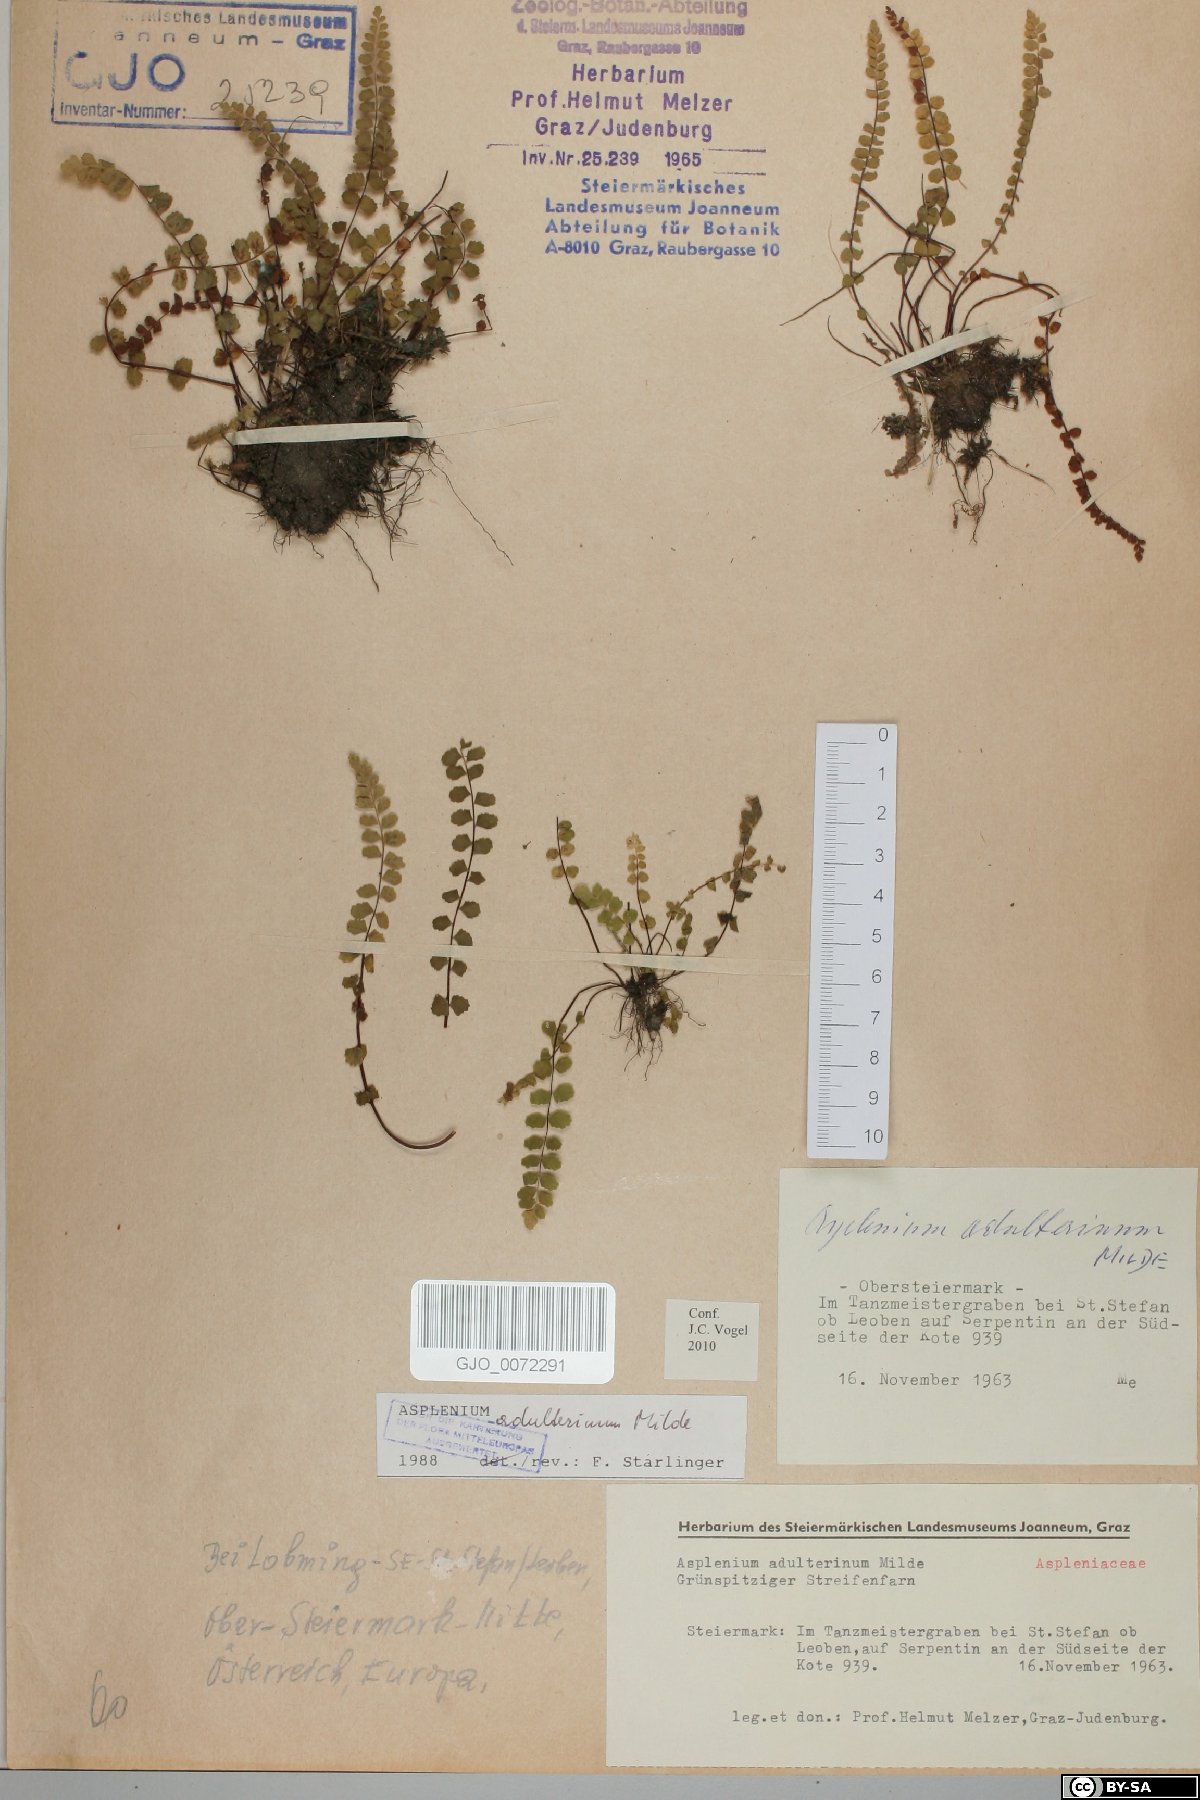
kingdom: Plantae
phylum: Tracheophyta
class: Polypodiopsida
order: Polypodiales
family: Aspleniaceae
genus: Asplenium
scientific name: Asplenium adulterinum
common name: Adulterated spleenwort
